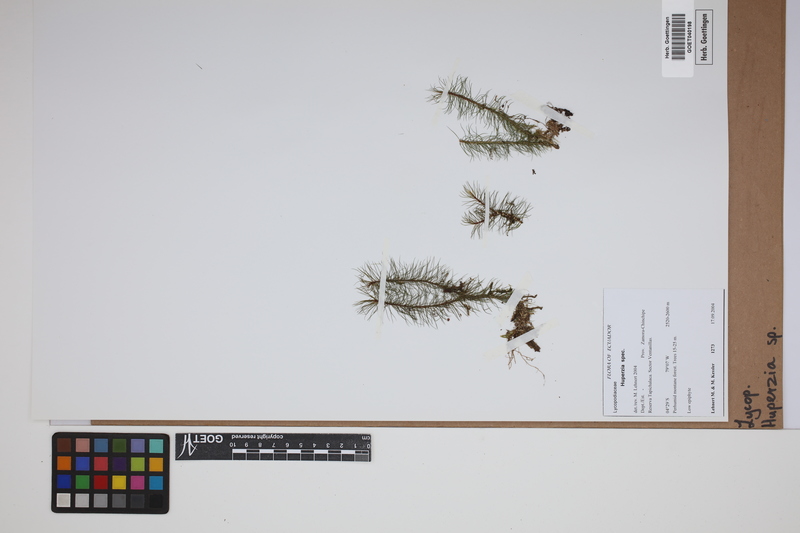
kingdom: Plantae
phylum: Tracheophyta
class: Lycopodiopsida
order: Lycopodiales
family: Lycopodiaceae
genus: Phlegmariurus
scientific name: Phlegmariurus
